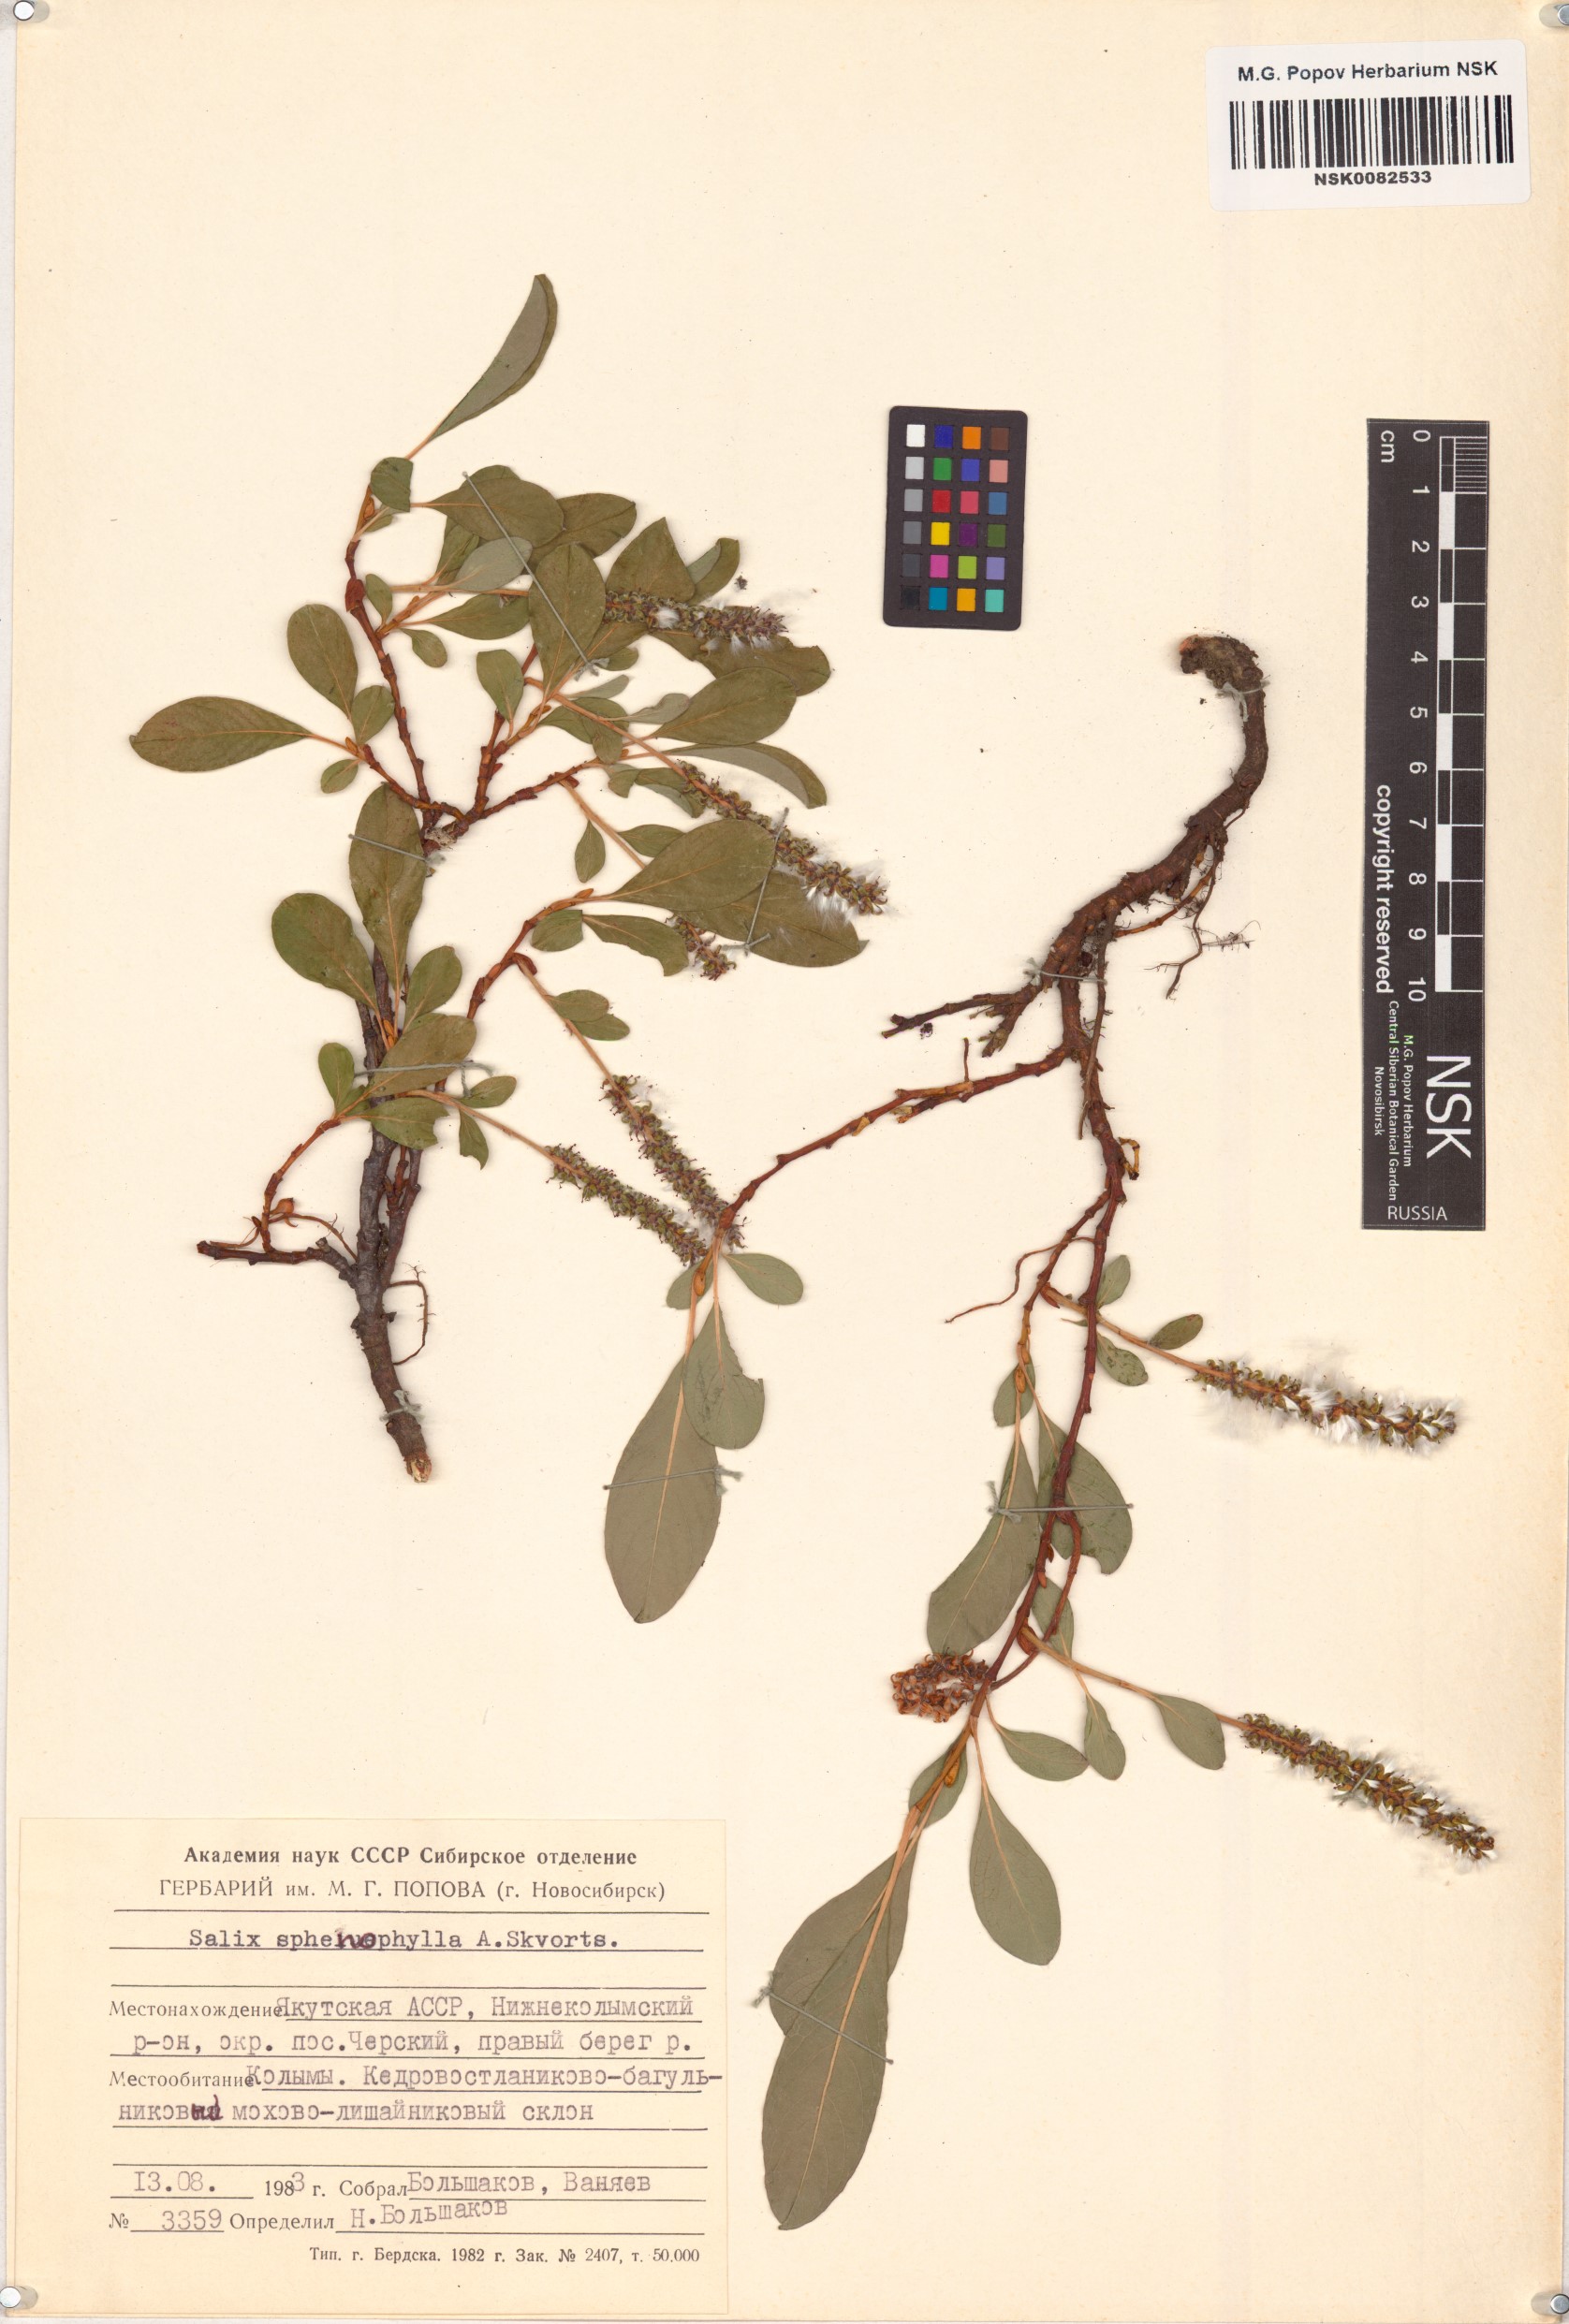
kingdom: Plantae
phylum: Tracheophyta
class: Magnoliopsida
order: Malpighiales
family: Salicaceae
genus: Salix
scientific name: Salix sphenophylla
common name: Wedge-leaved willow
